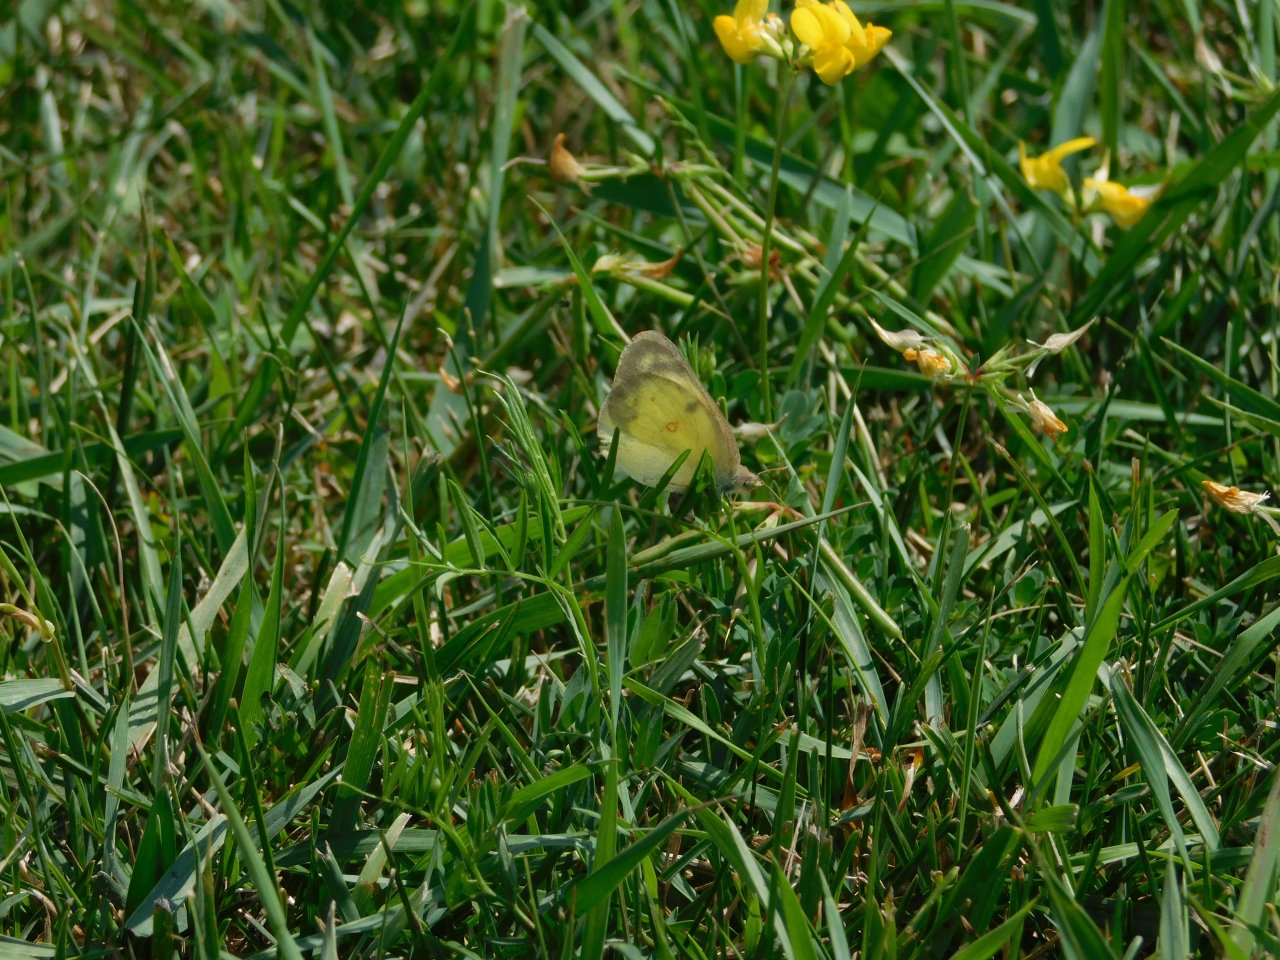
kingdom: Animalia
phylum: Arthropoda
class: Insecta
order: Lepidoptera
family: Pieridae
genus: Colias
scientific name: Colias philodice
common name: Clouded Sulphur
